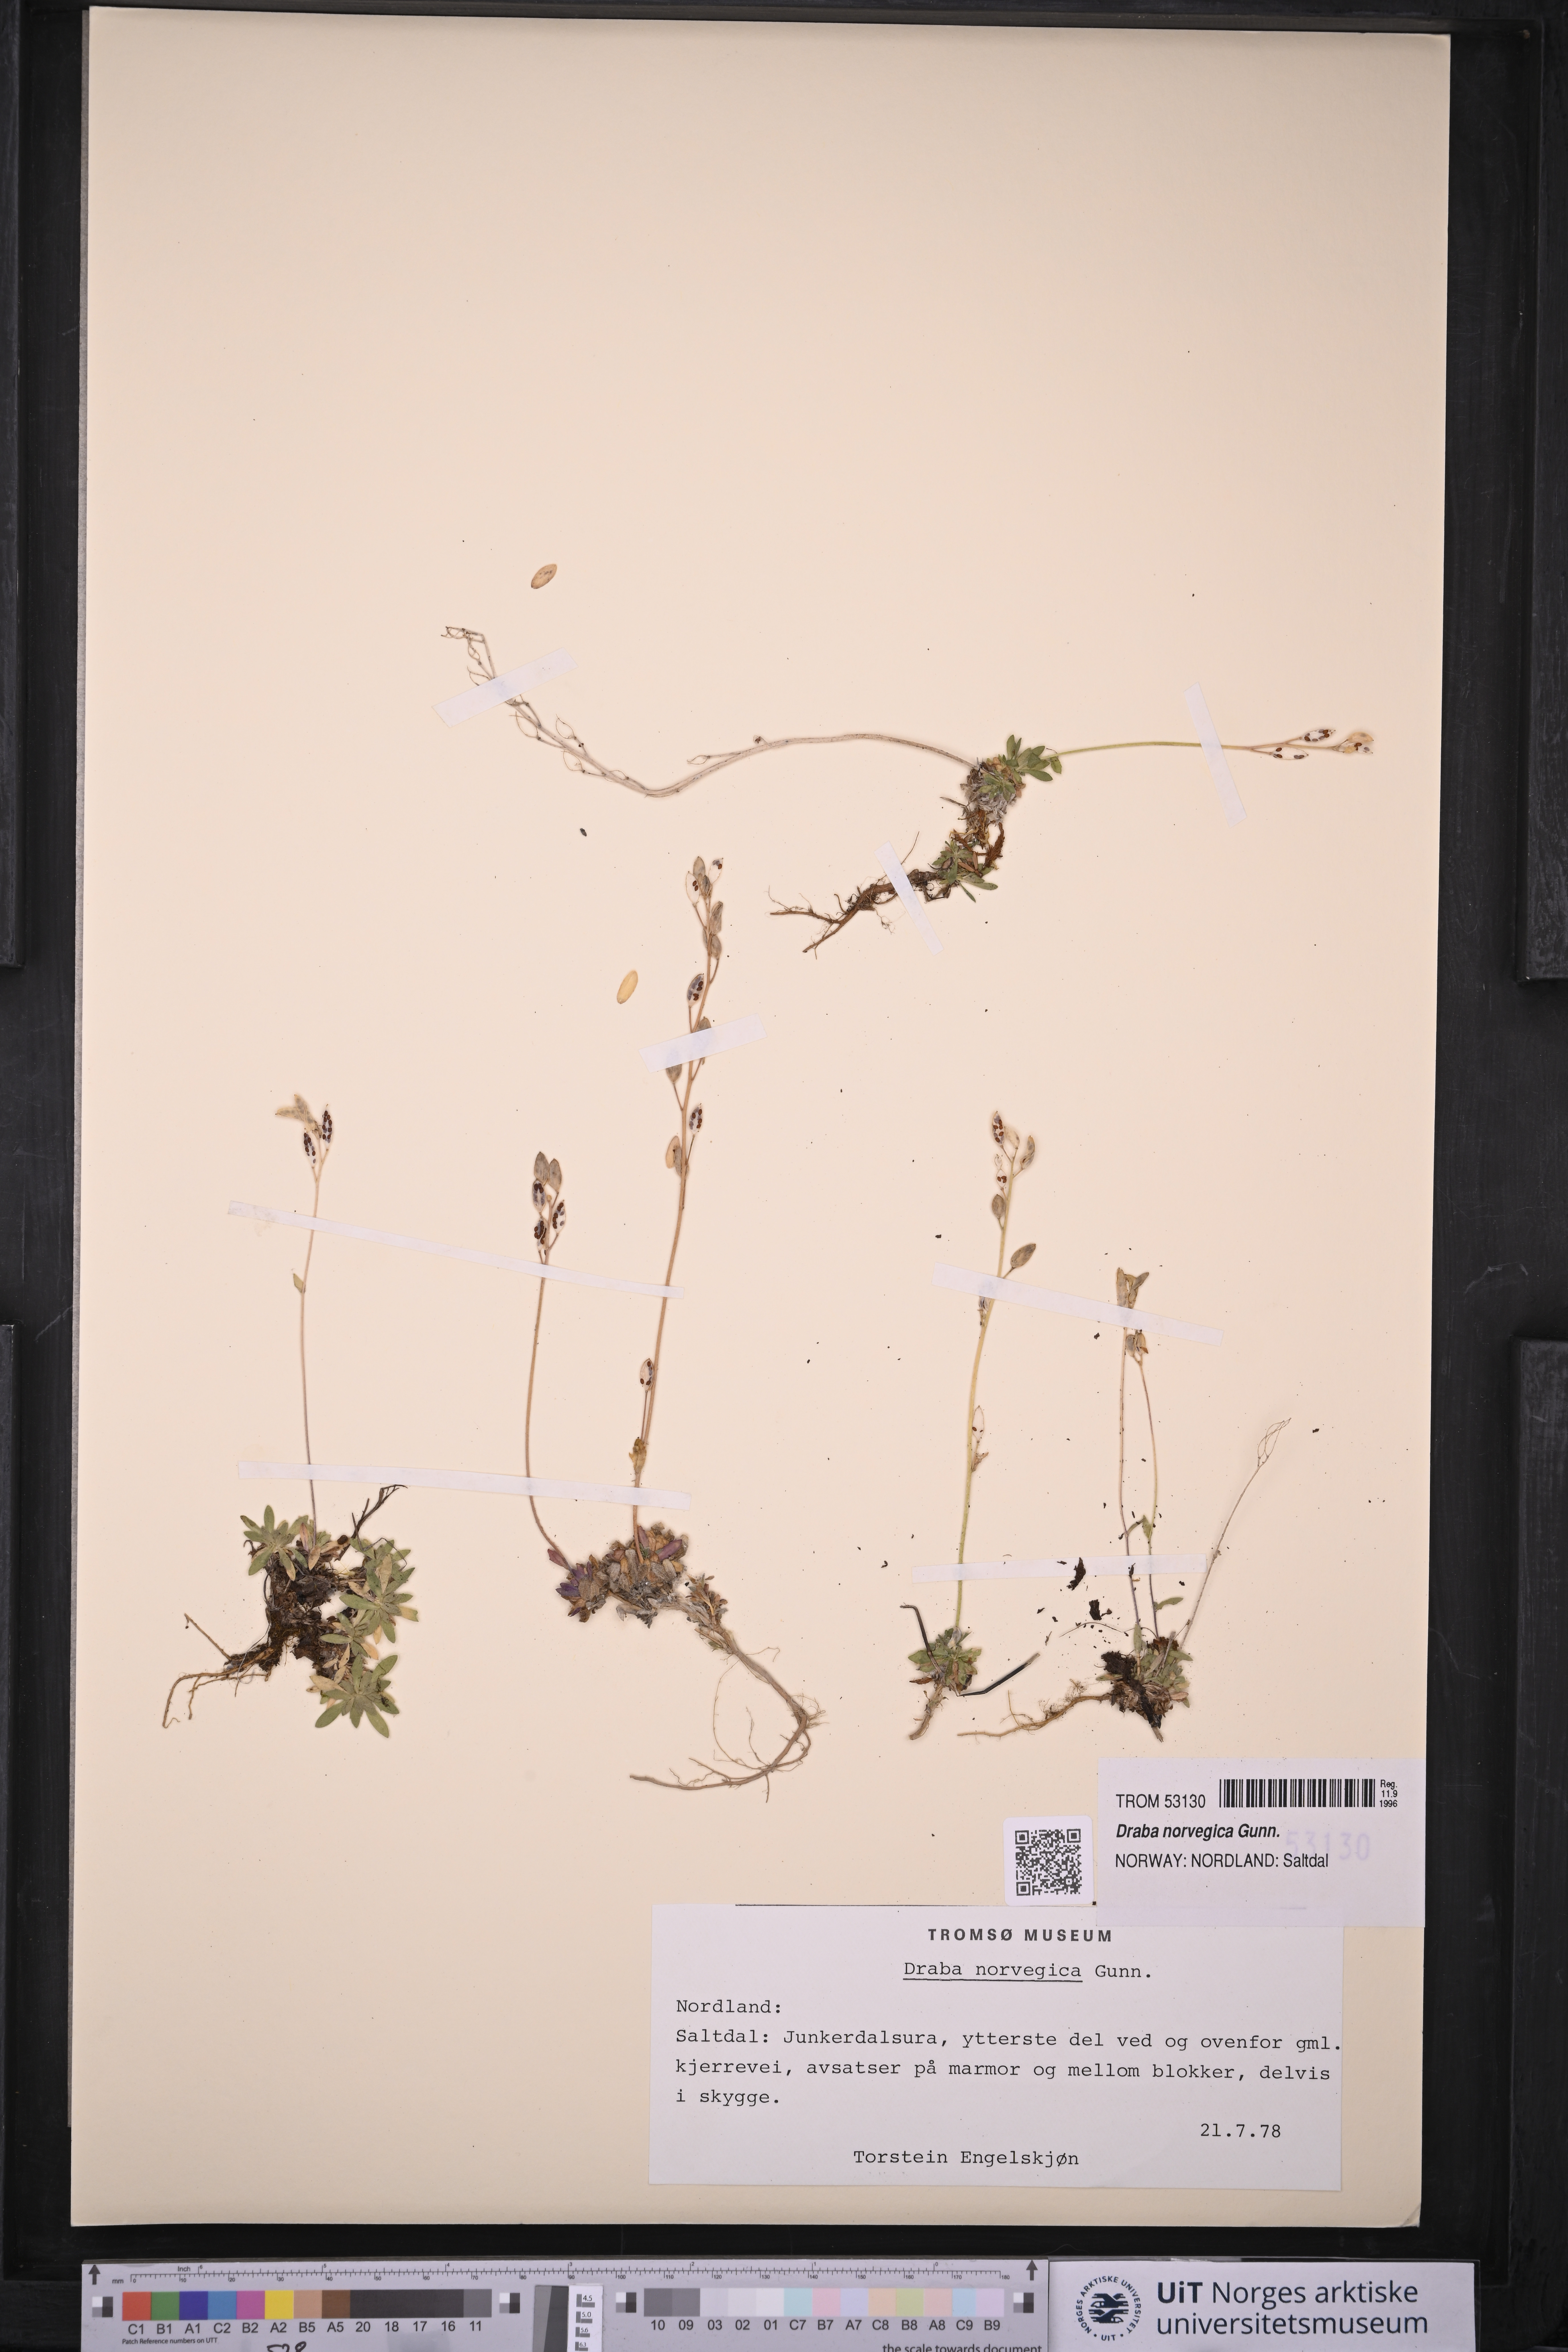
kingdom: Plantae
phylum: Tracheophyta
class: Magnoliopsida
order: Brassicales
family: Brassicaceae
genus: Draba
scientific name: Draba norvegica
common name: Rock whitlowgrass
